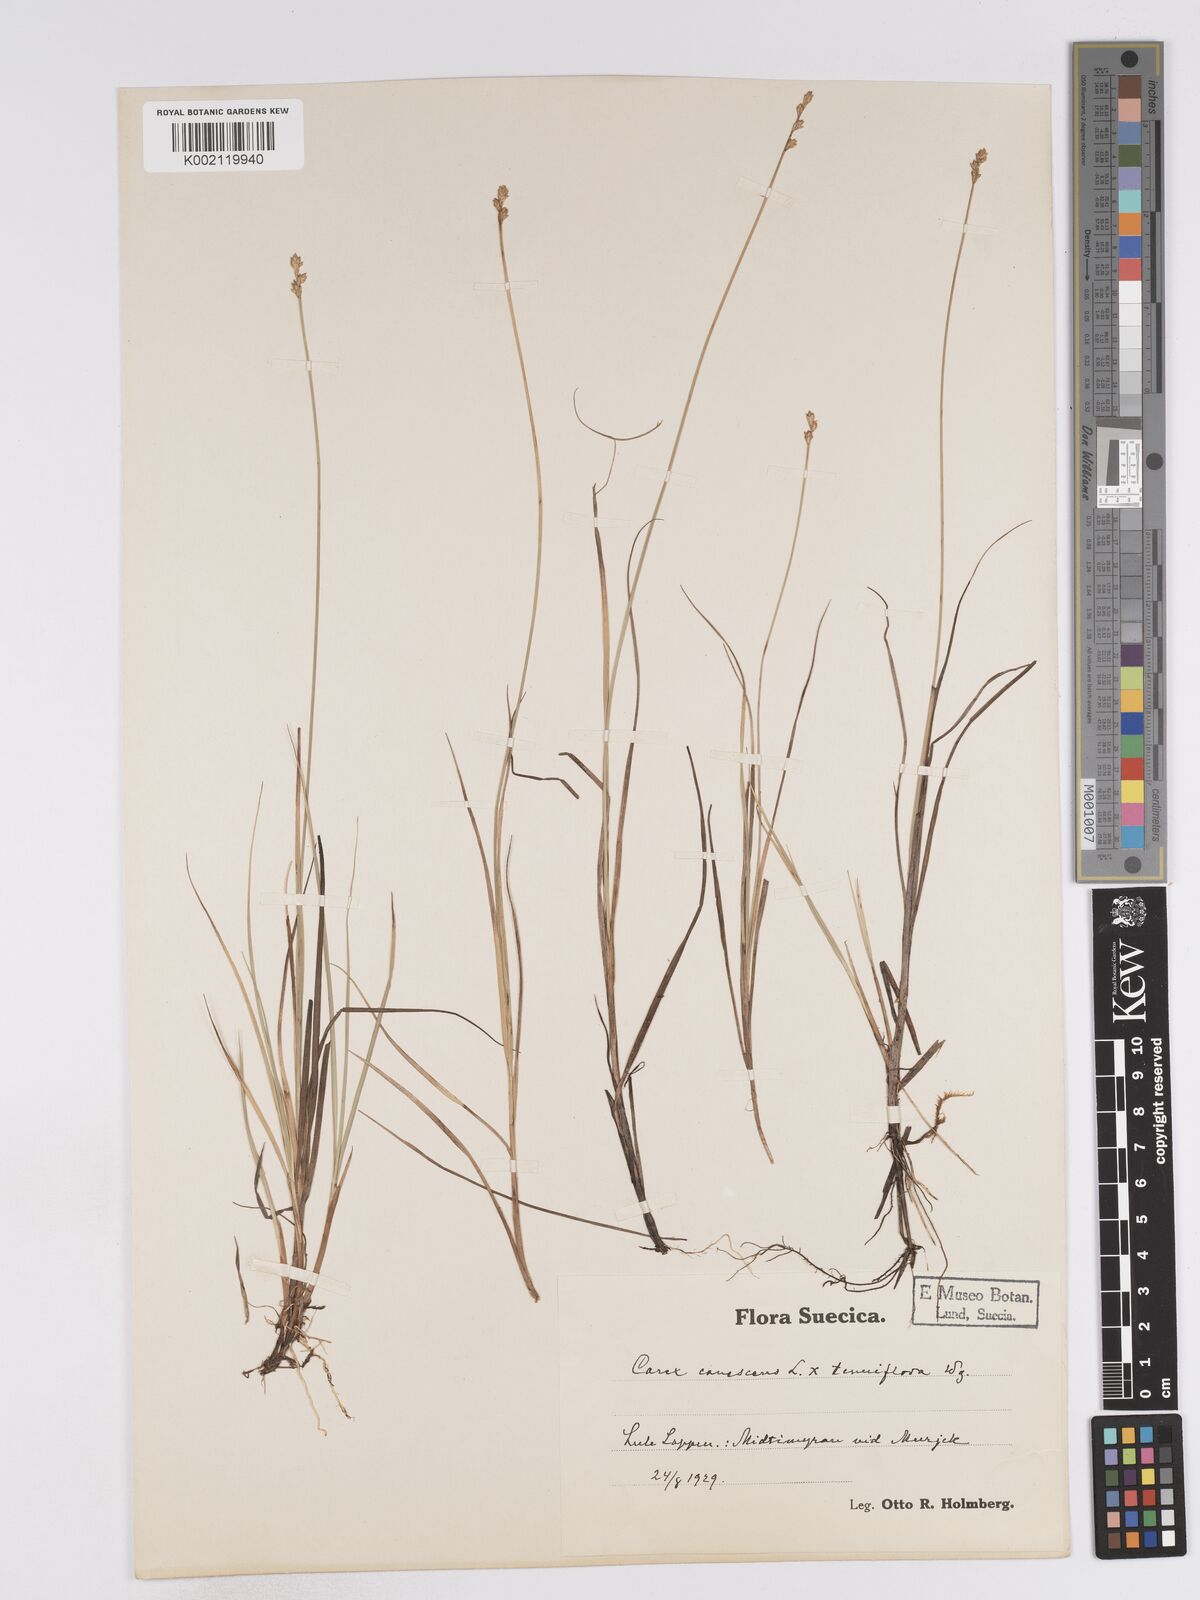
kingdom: Plantae
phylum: Tracheophyta
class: Liliopsida
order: Poales
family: Cyperaceae
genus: Carex
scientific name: Carex curta
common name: White sedge
